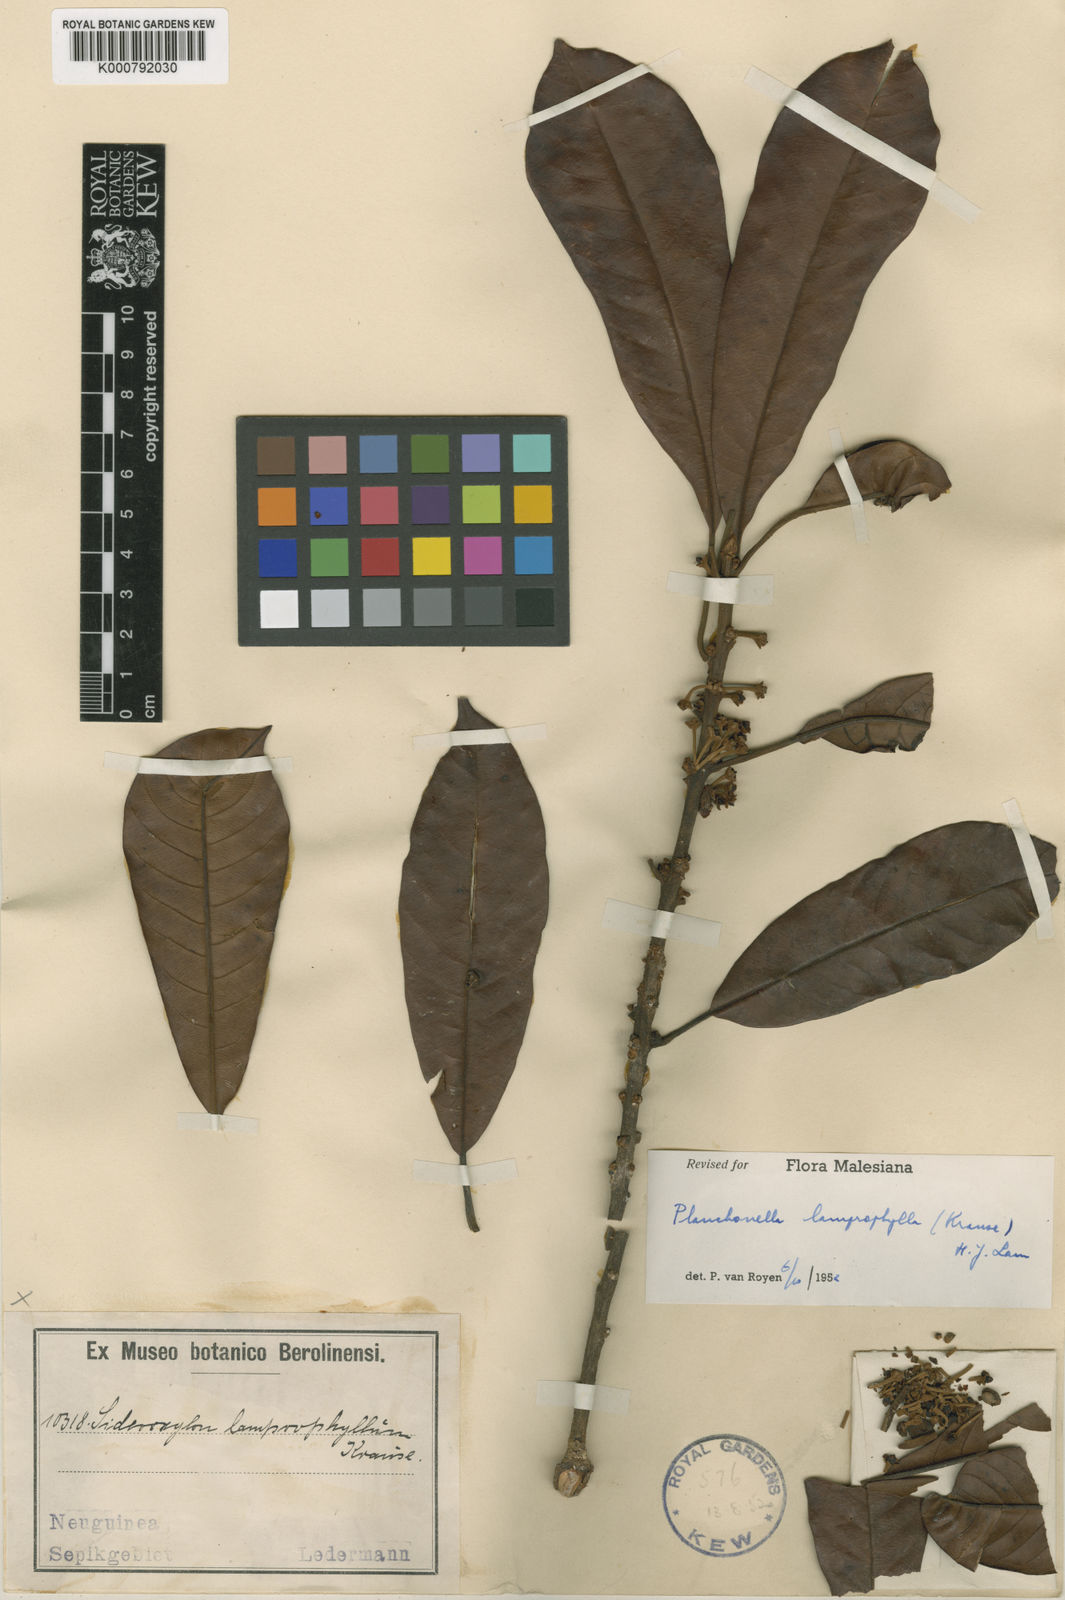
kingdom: Plantae
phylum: Tracheophyta
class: Magnoliopsida
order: Ericales
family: Sapotaceae
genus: Pleioluma
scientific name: Pleioluma lamprophylla
